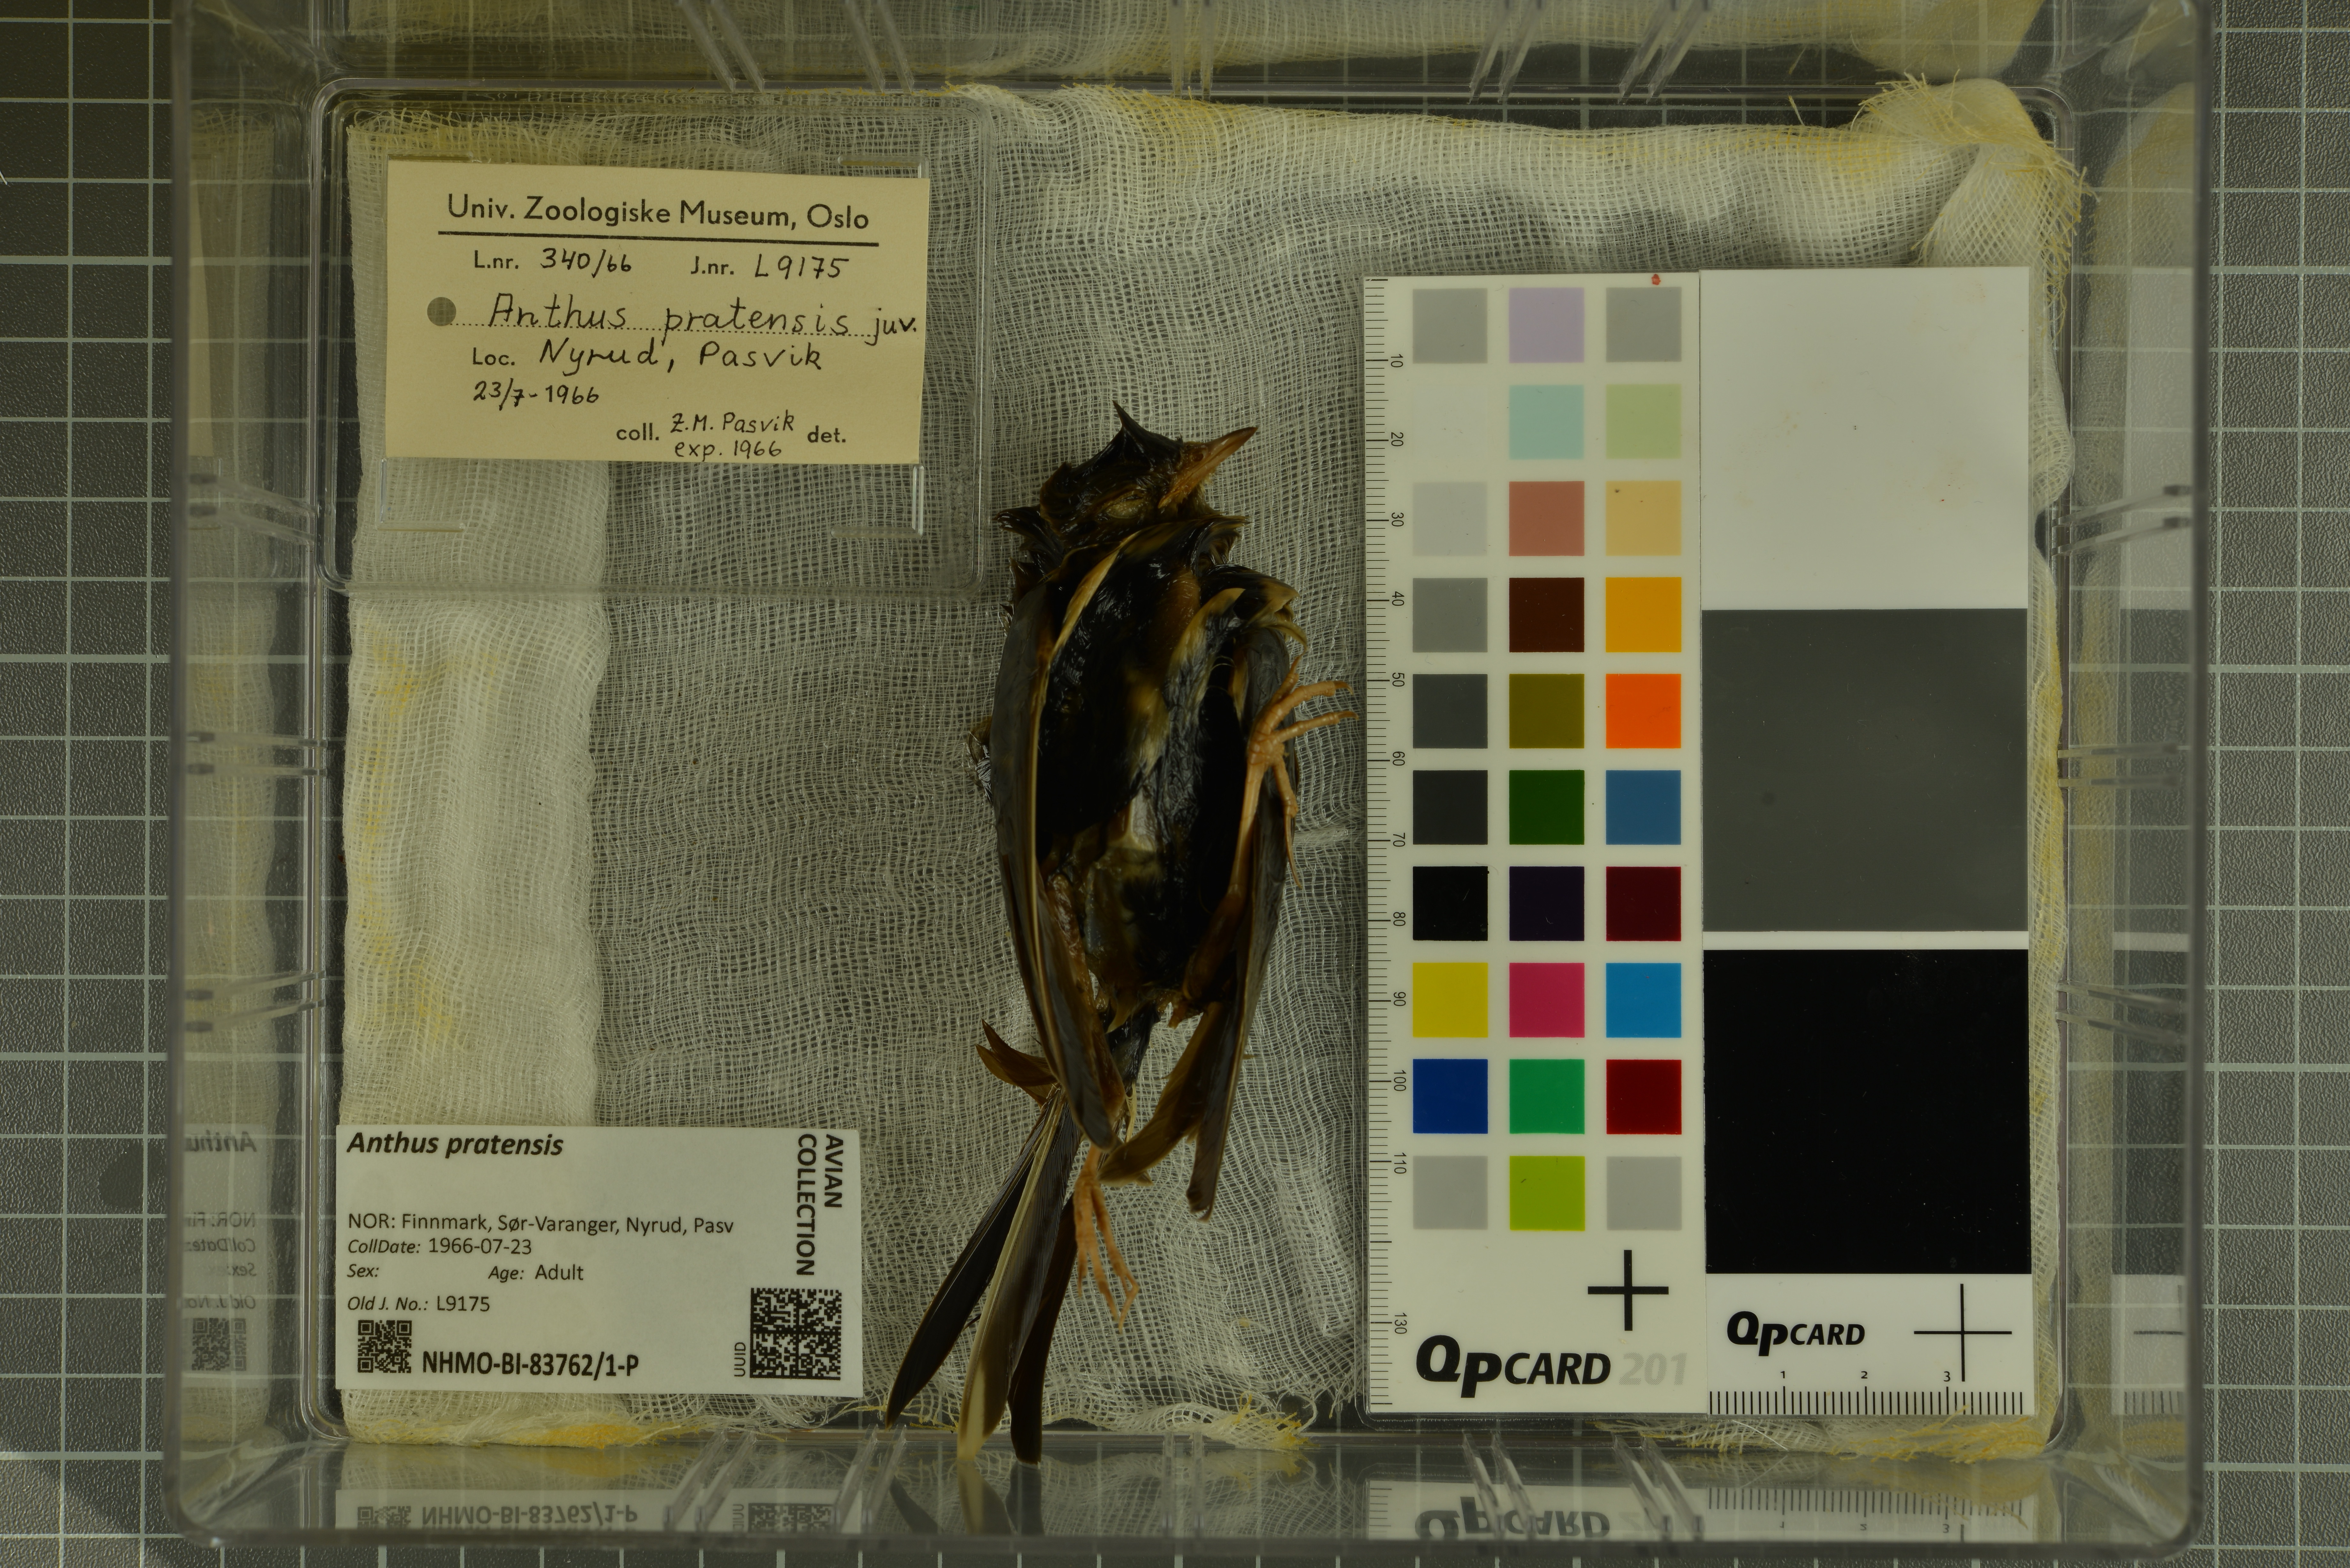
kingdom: Animalia
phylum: Chordata
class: Aves
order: Passeriformes
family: Motacillidae
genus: Anthus
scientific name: Anthus pratensis
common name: Meadow pipit
